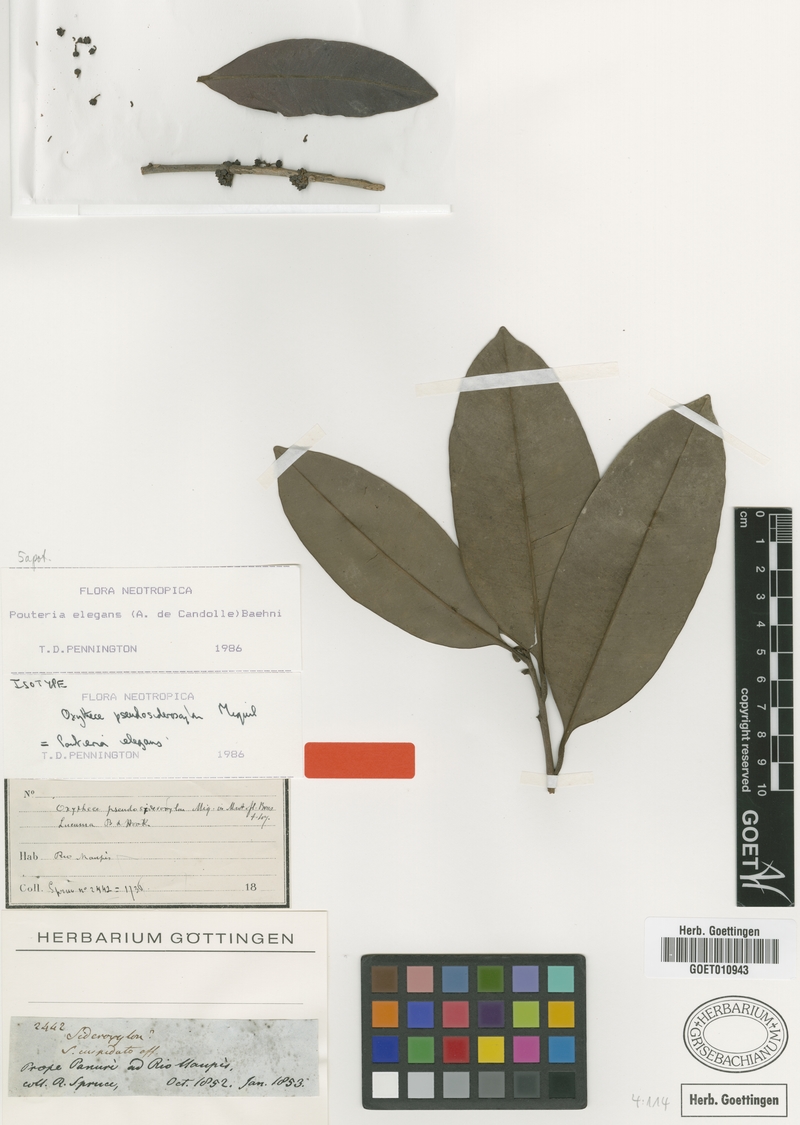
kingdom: Plantae
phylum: Tracheophyta
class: Magnoliopsida
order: Ericales
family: Sapotaceae
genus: Pouteria
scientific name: Pouteria elegans
